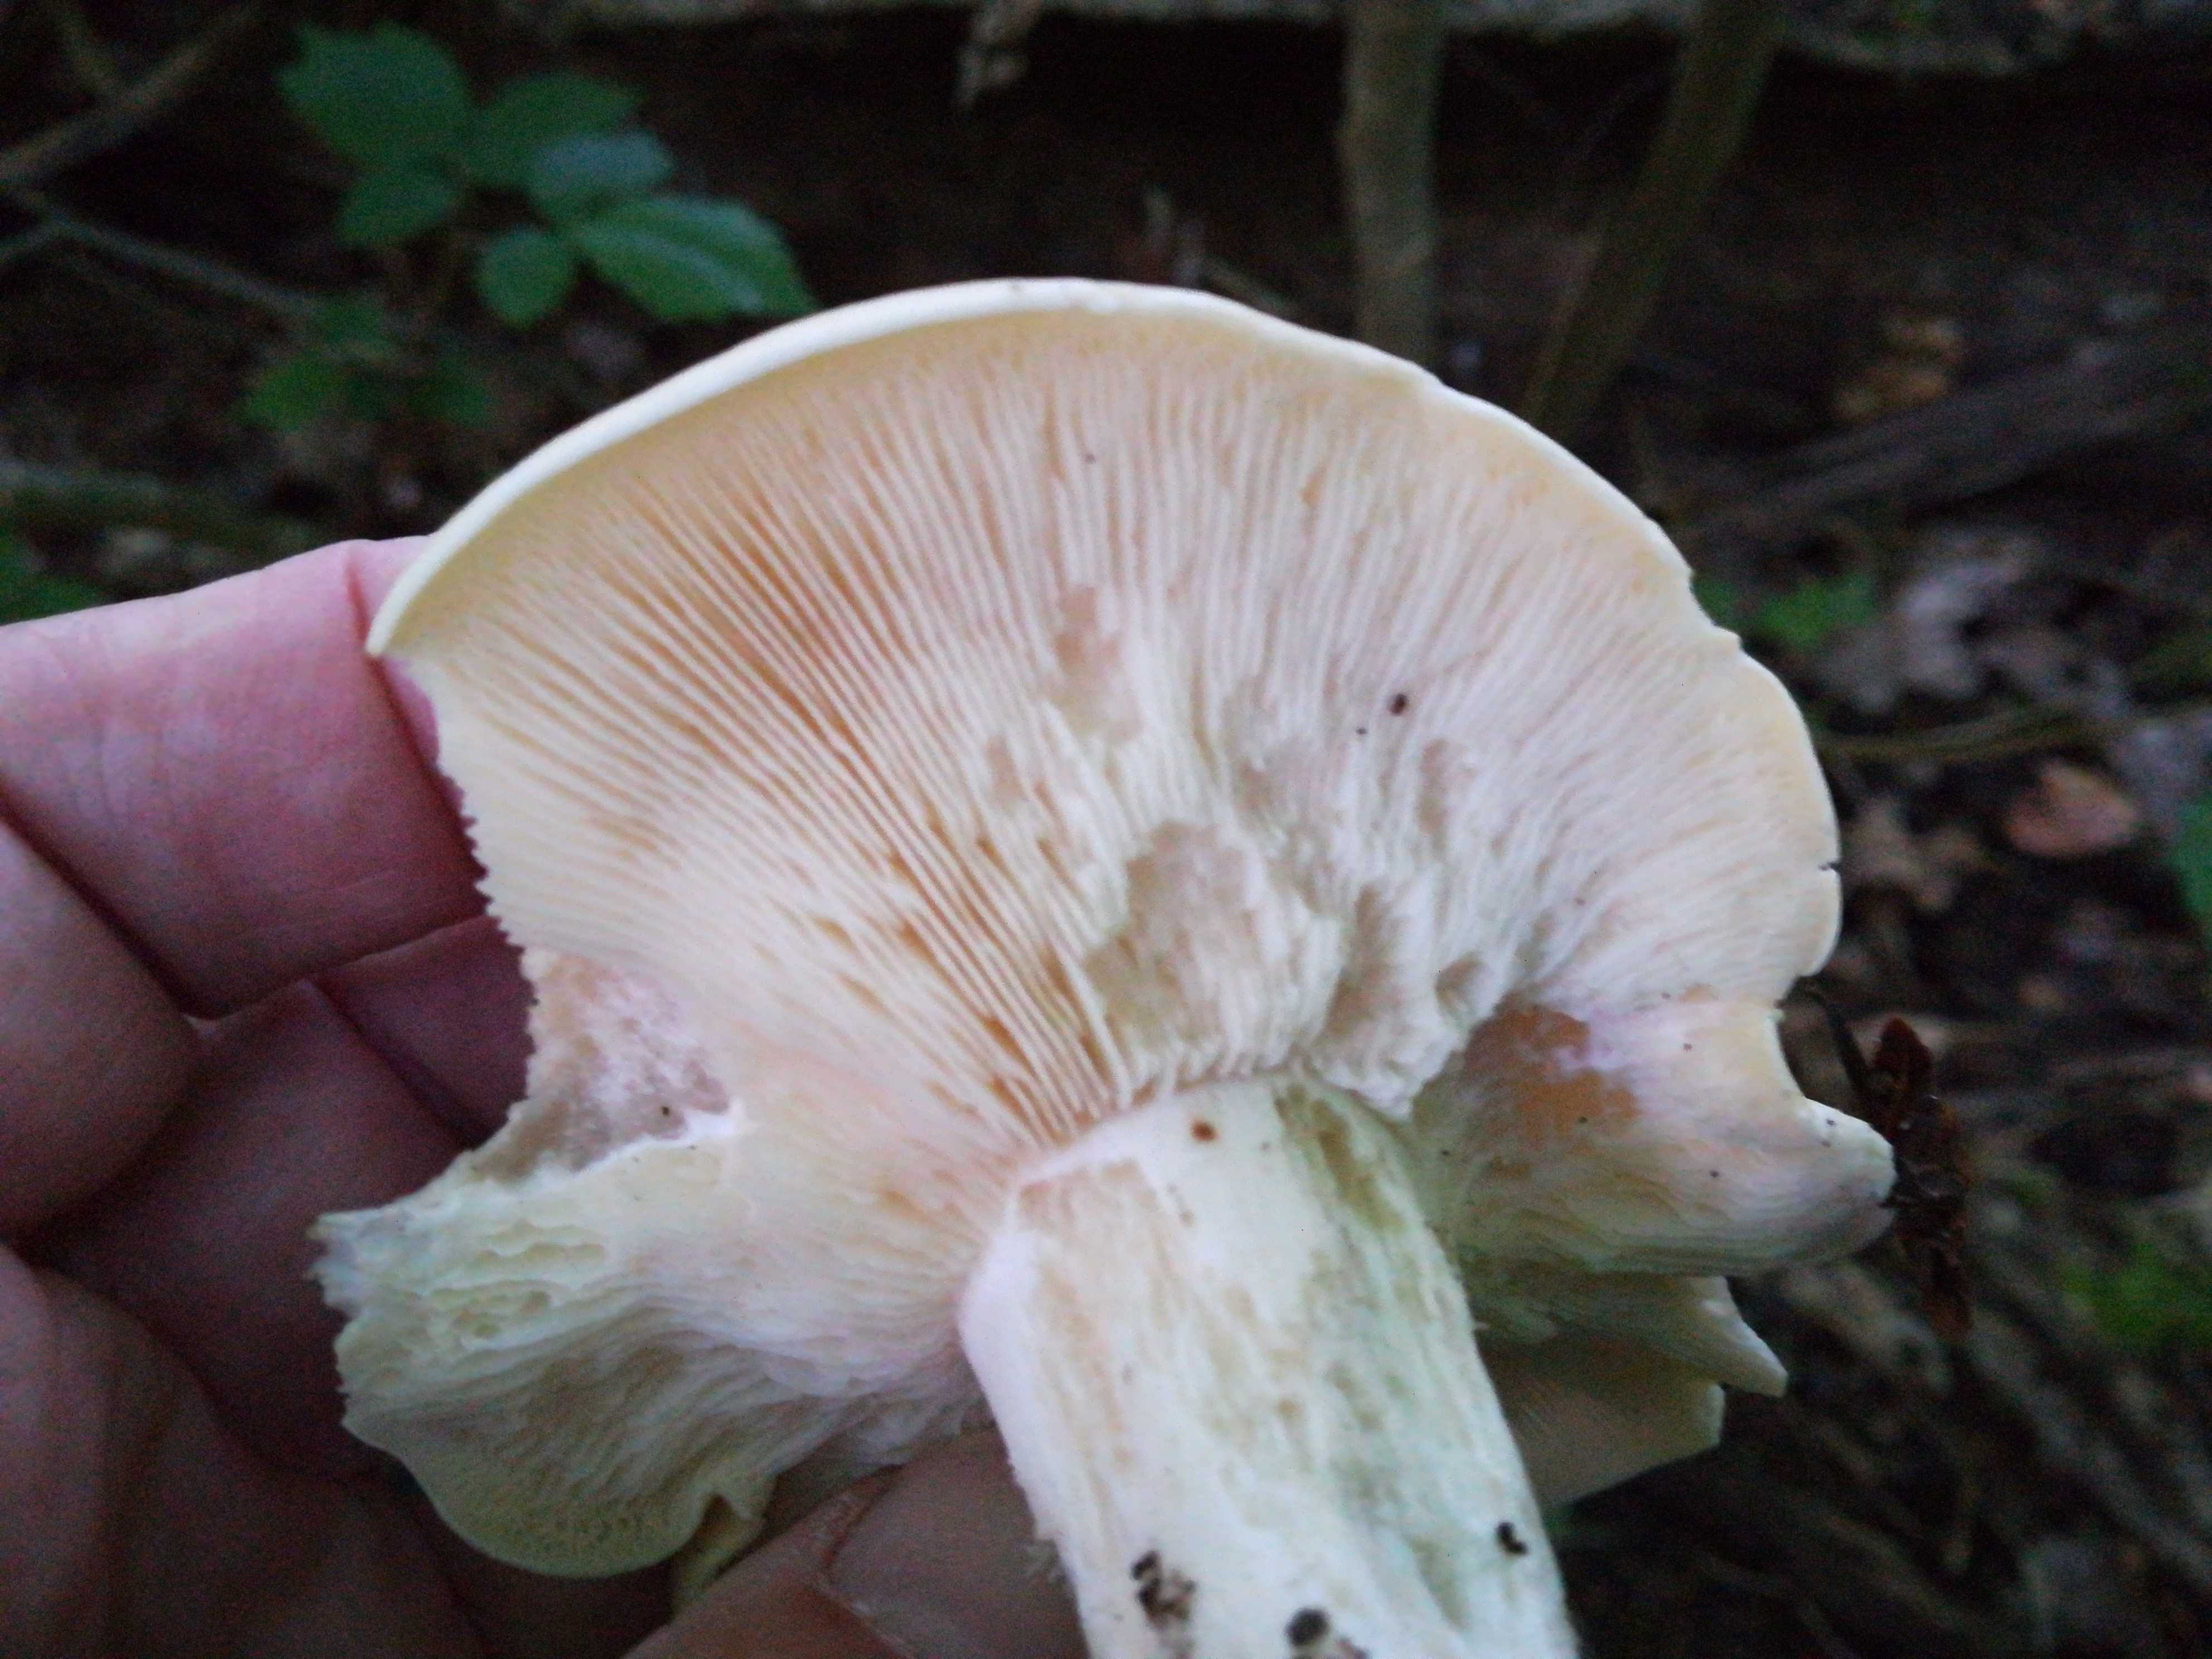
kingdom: Fungi
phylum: Basidiomycota
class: Agaricomycetes
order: Agaricales
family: Lyophyllaceae
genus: Calocybe
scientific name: Calocybe gambosa
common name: vårmusseron
